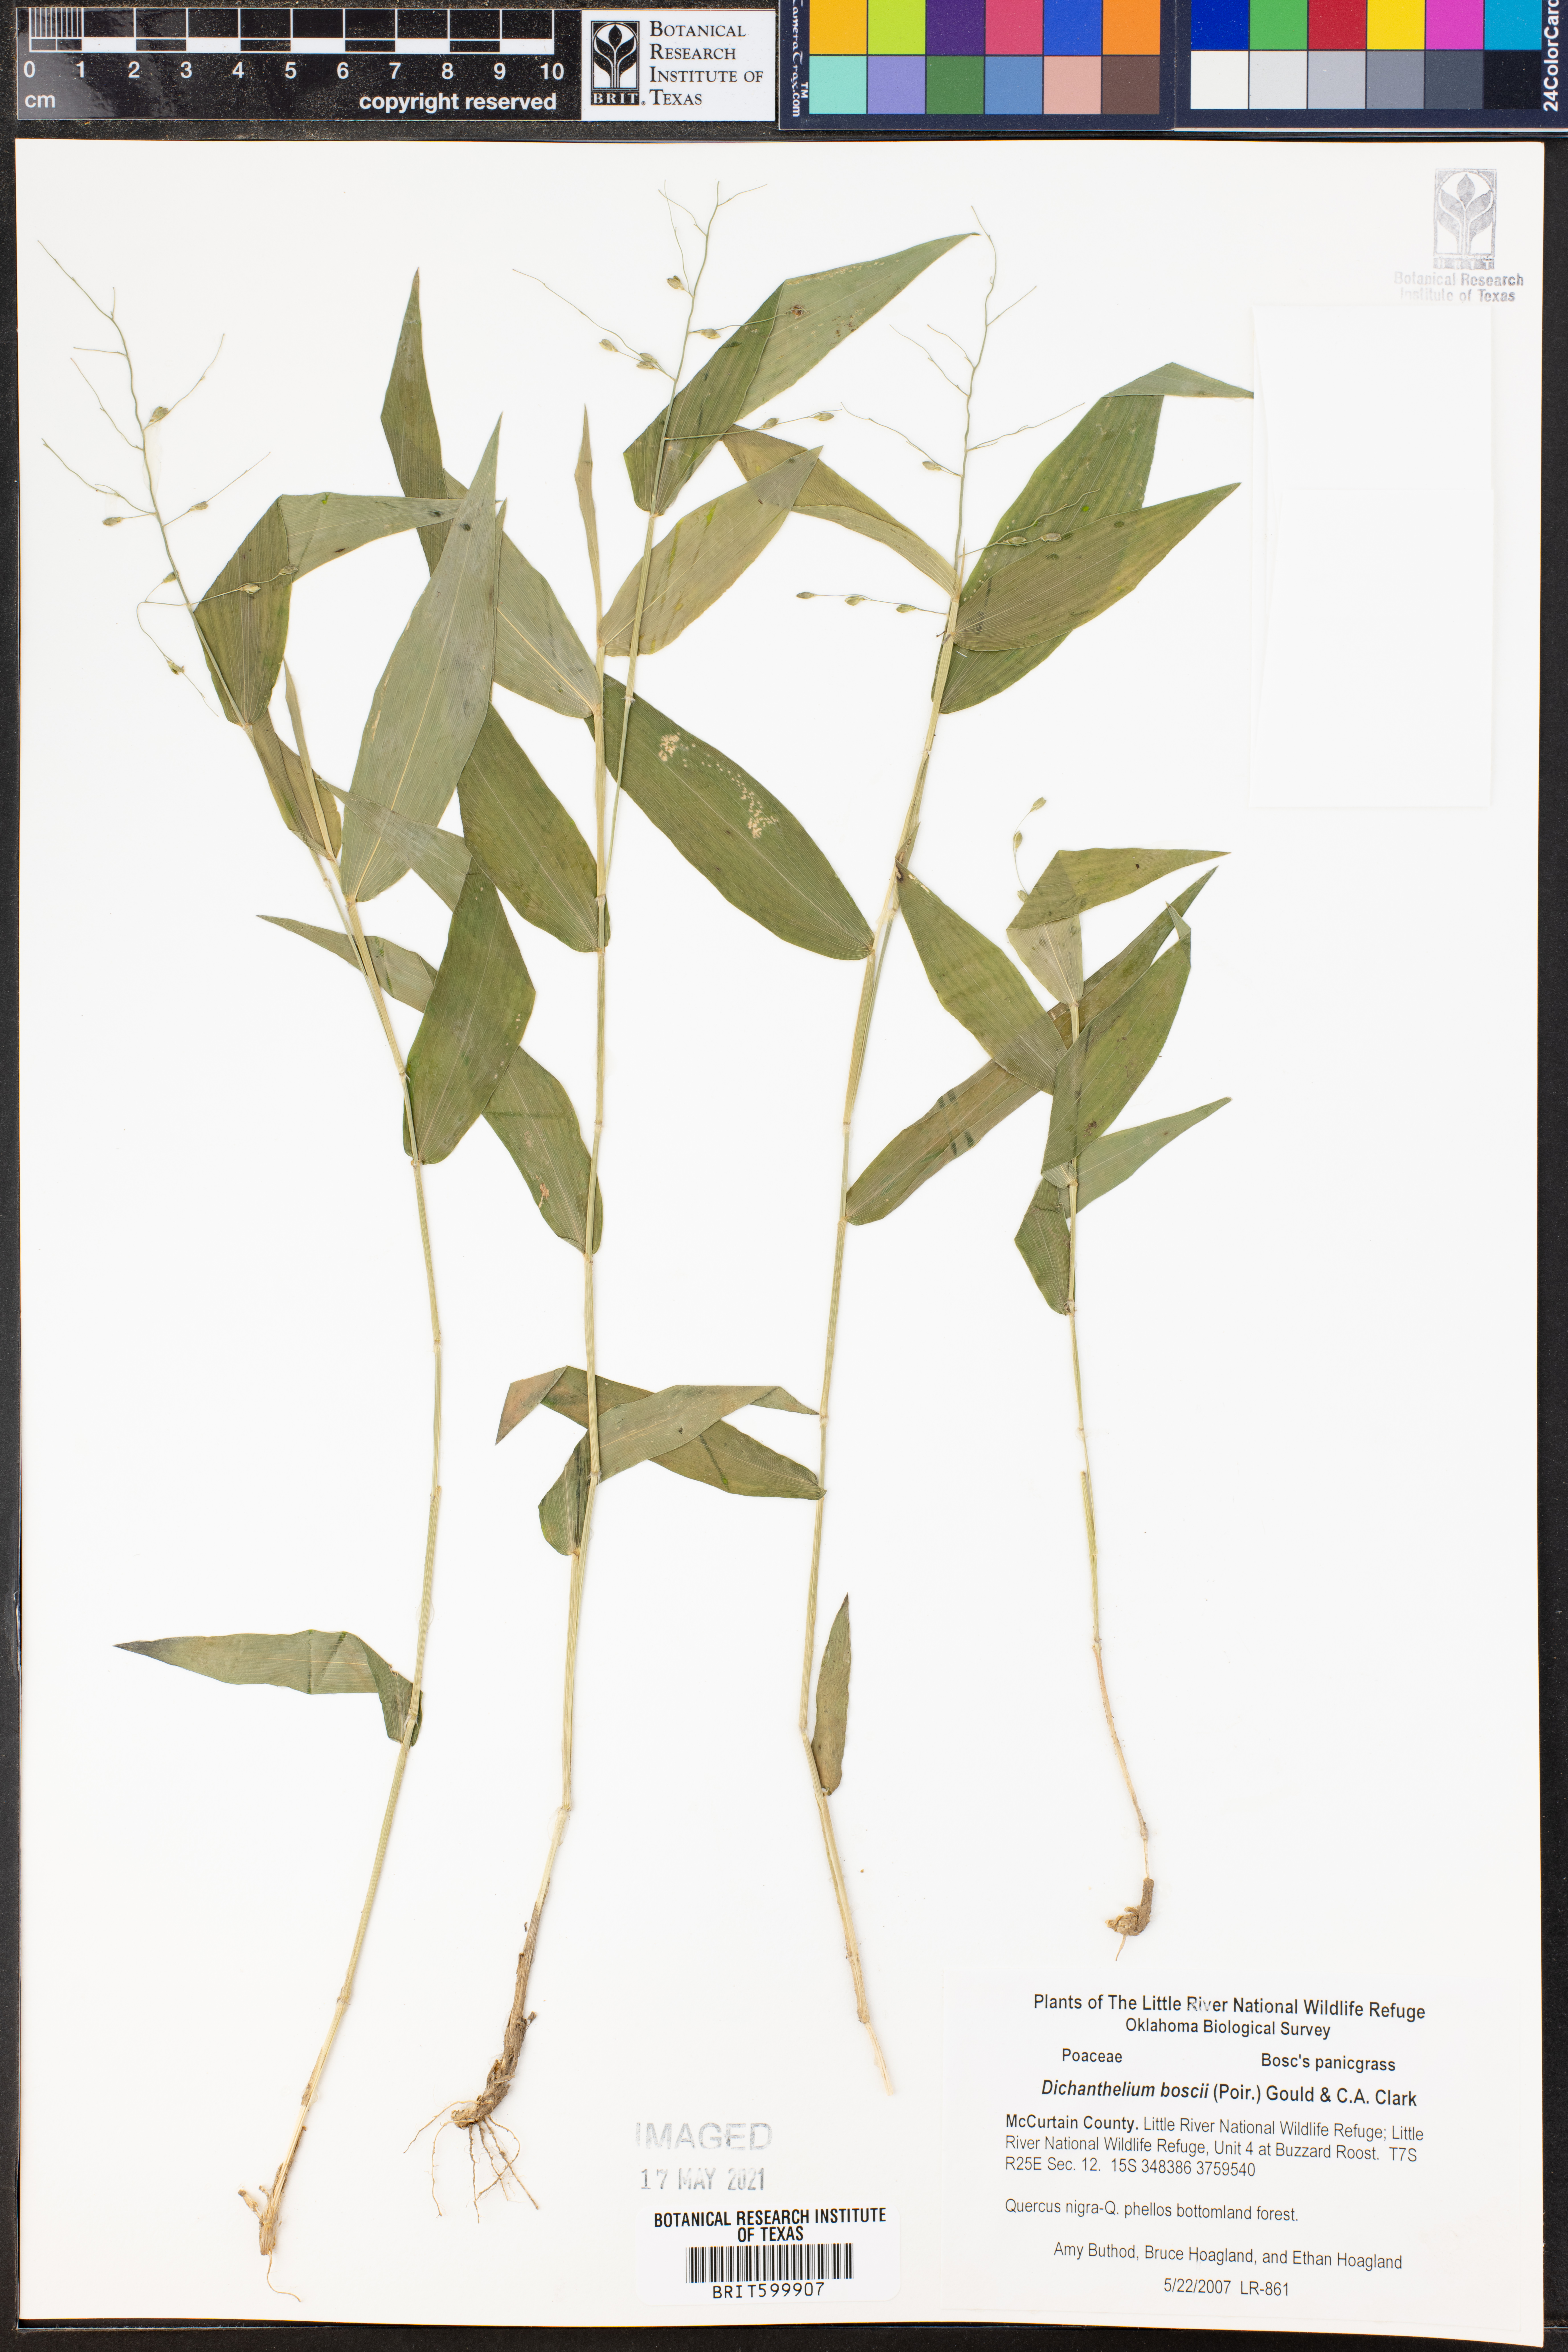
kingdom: Plantae
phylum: Tracheophyta
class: Liliopsida
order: Poales
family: Poaceae
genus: Dichanthelium
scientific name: Dichanthelium boscii
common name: Bosc's panic grass
